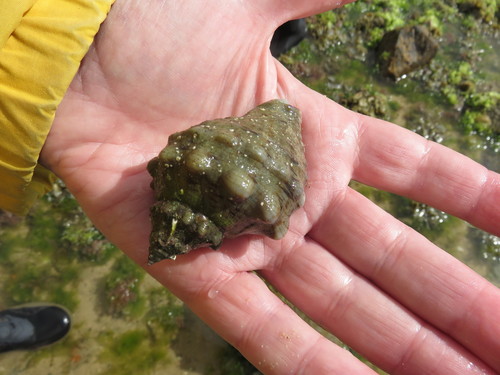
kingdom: Animalia
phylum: Mollusca
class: Gastropoda
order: Neogastropoda
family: Muricidae
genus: Stramonita
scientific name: Stramonita haemastoma
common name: Florida dog winkle
